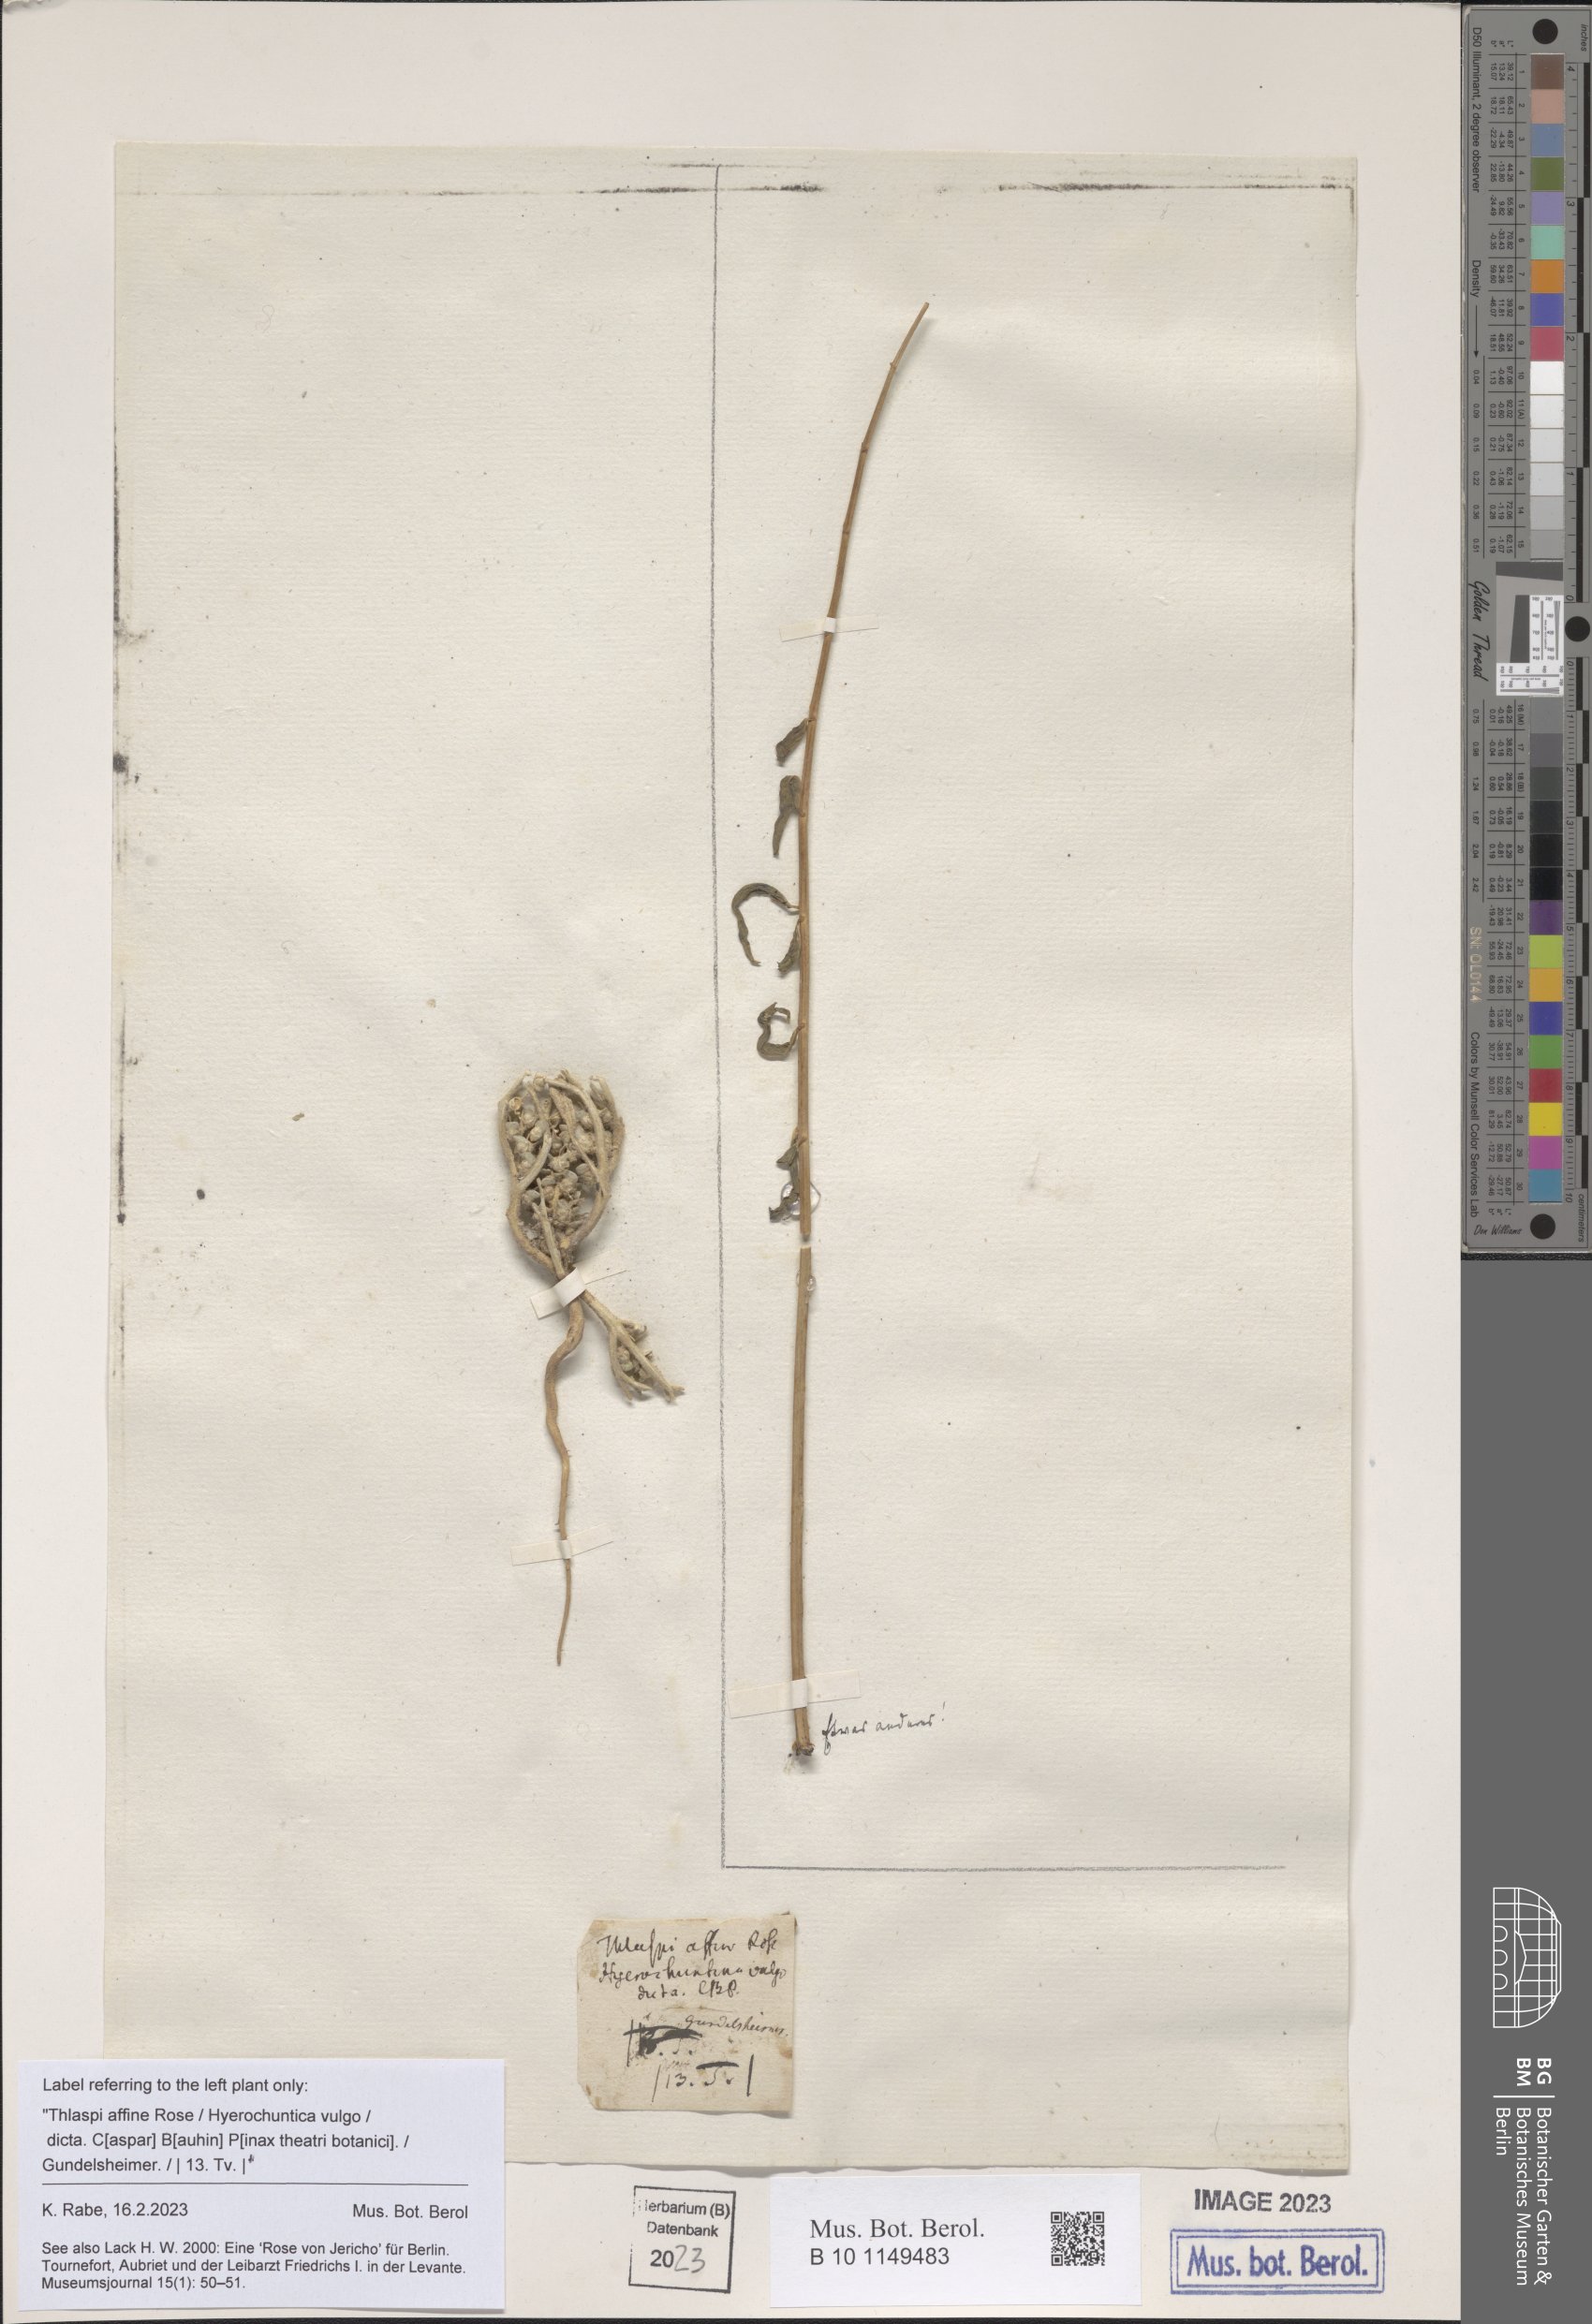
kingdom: Plantae
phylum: Tracheophyta
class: Magnoliopsida
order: Brassicales
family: Brassicaceae
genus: Anastatica
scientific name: Anastatica hierochuntica
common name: Rose-of-jericho
